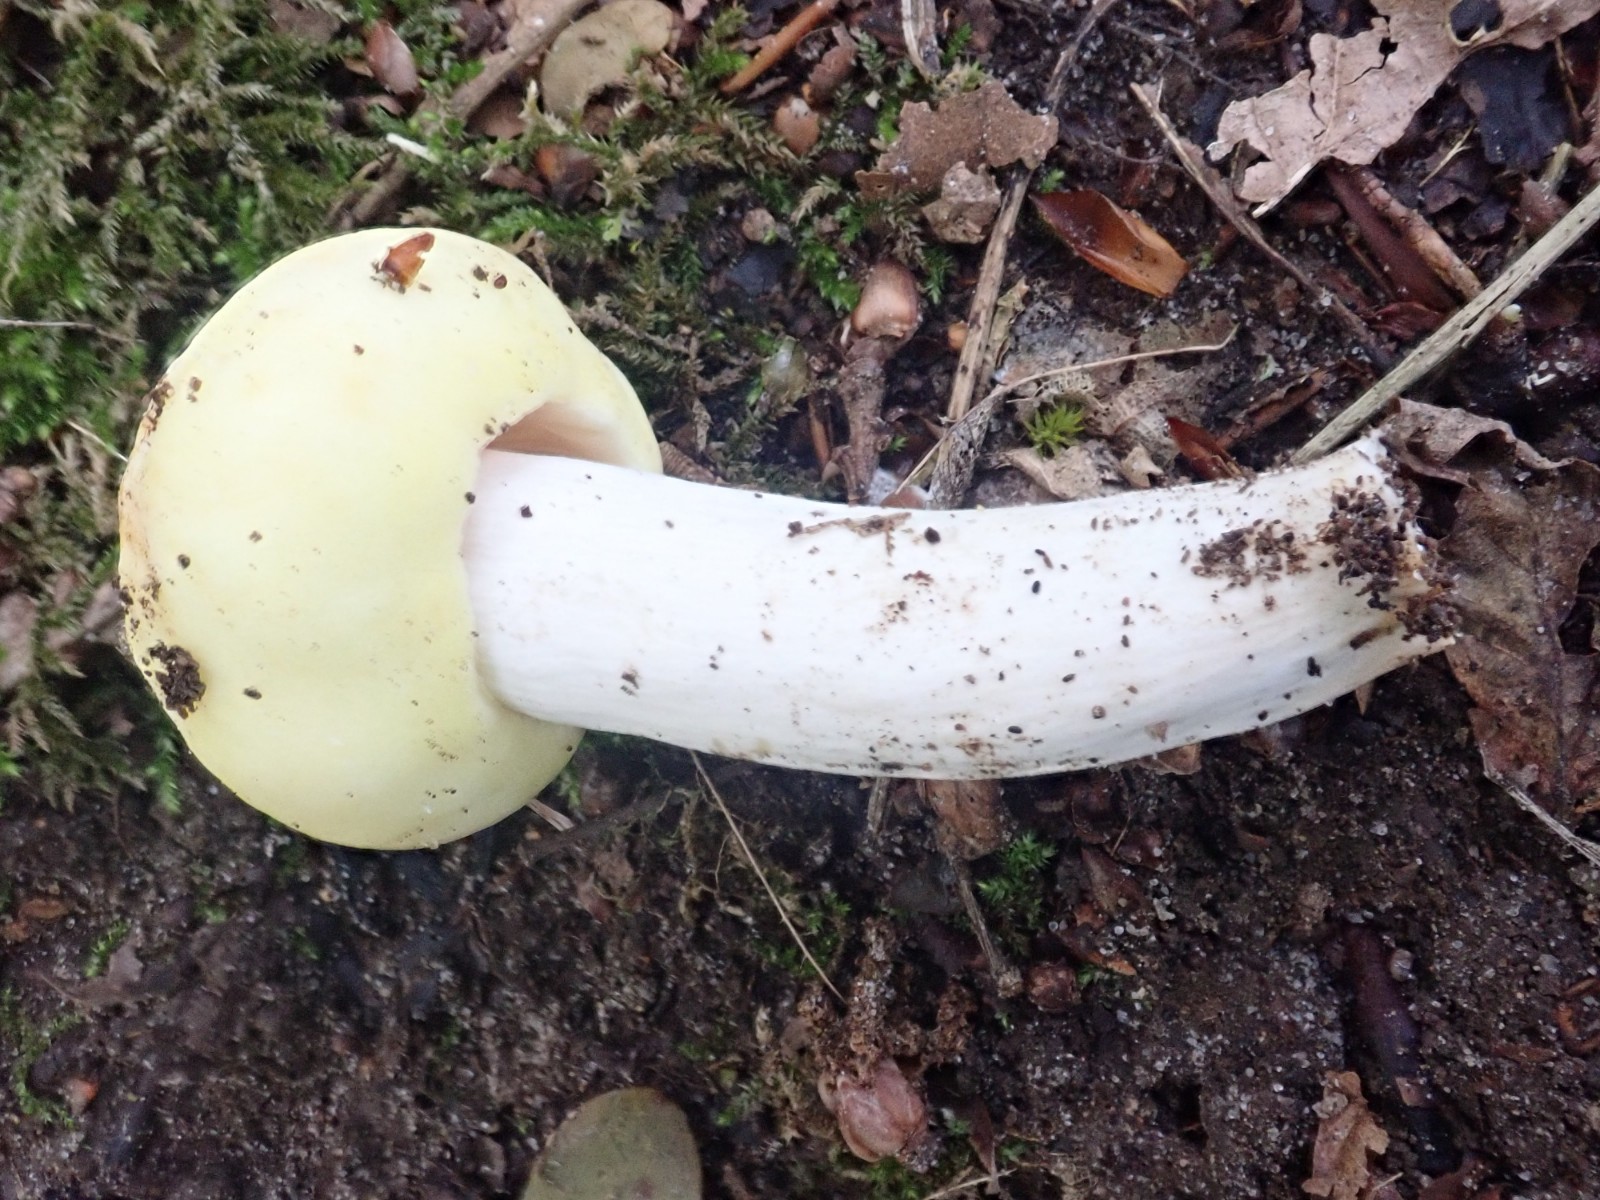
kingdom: Fungi
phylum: Basidiomycota
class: Agaricomycetes
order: Russulales
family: Russulaceae
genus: Russula
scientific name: Russula violeipes
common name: ferskengul skørhat
